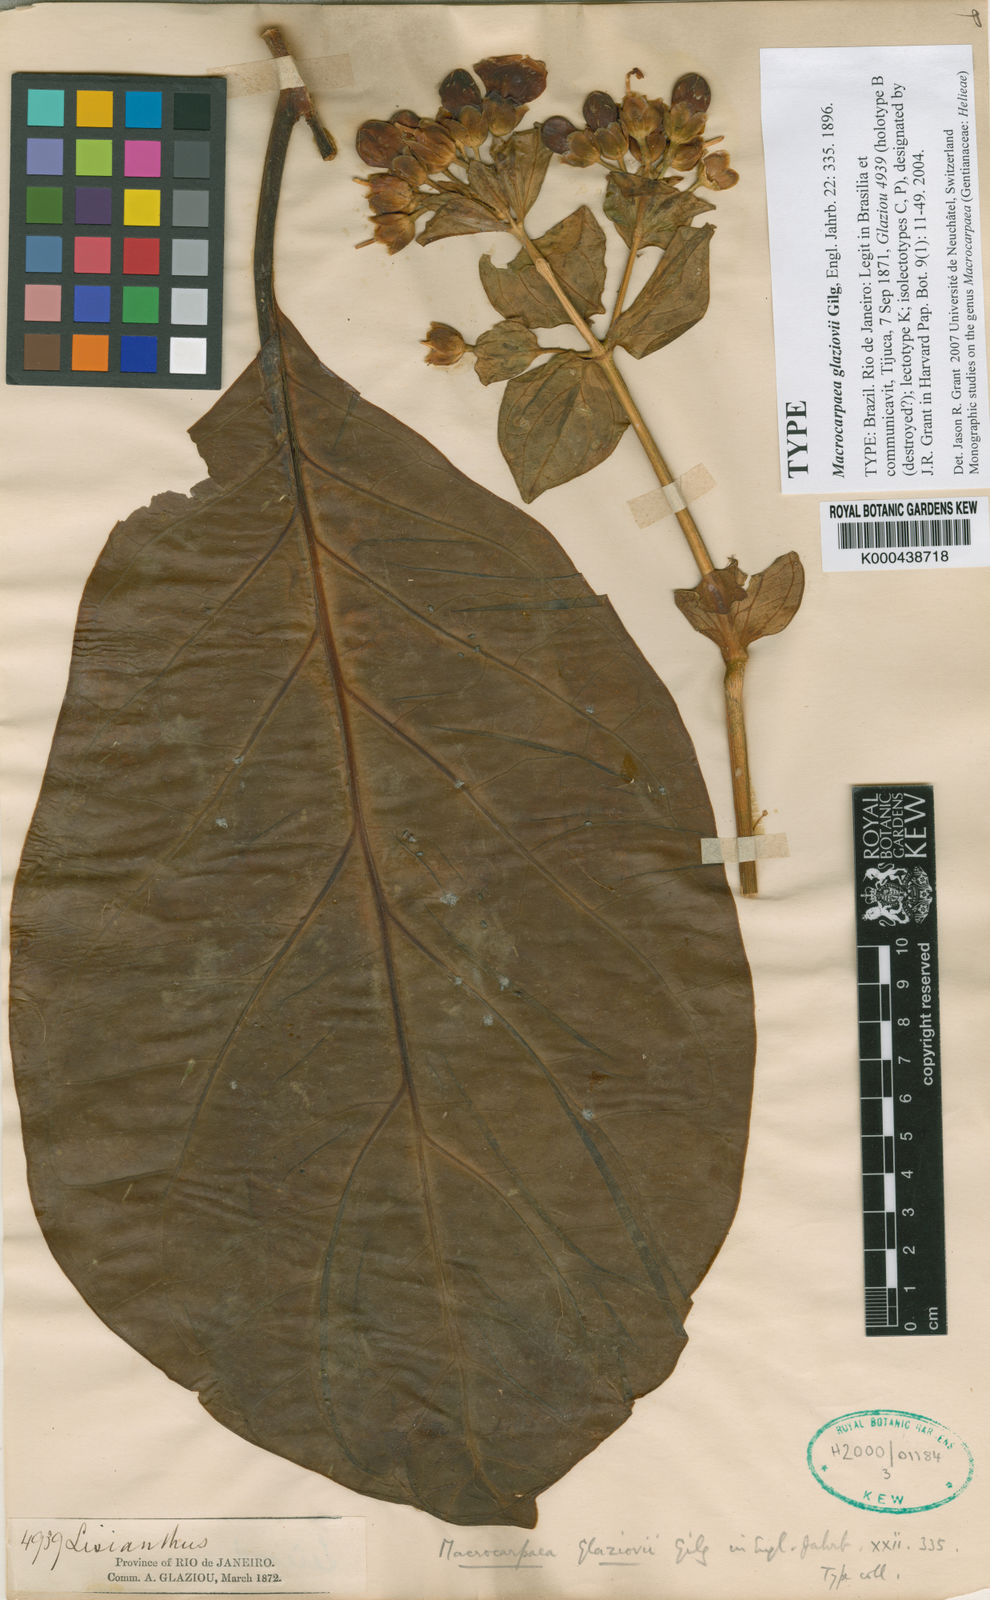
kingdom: Plantae
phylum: Tracheophyta
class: Magnoliopsida
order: Gentianales
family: Gentianaceae
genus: Macrocarpaea
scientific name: Macrocarpaea glaziovii
